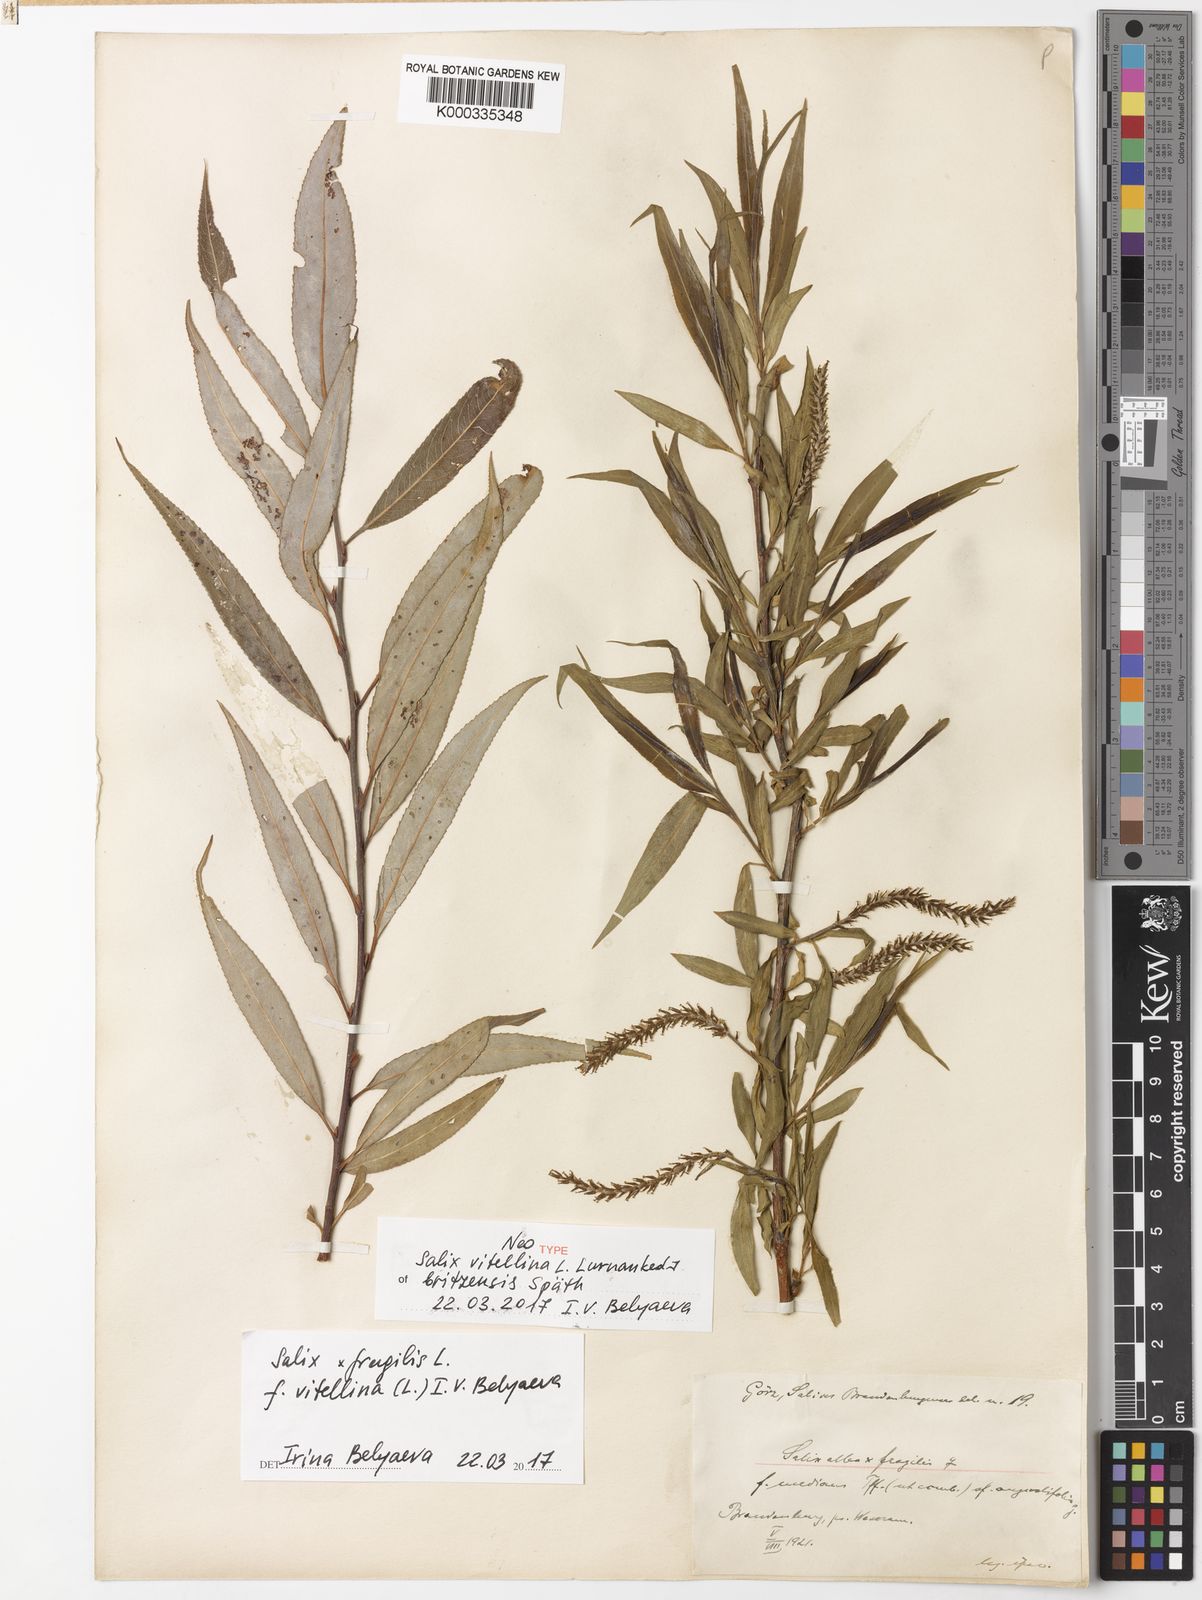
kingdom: Plantae
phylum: Tracheophyta
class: Magnoliopsida
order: Malpighiales
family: Salicaceae
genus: Salix
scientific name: Salix fragilis
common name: Crack willow
